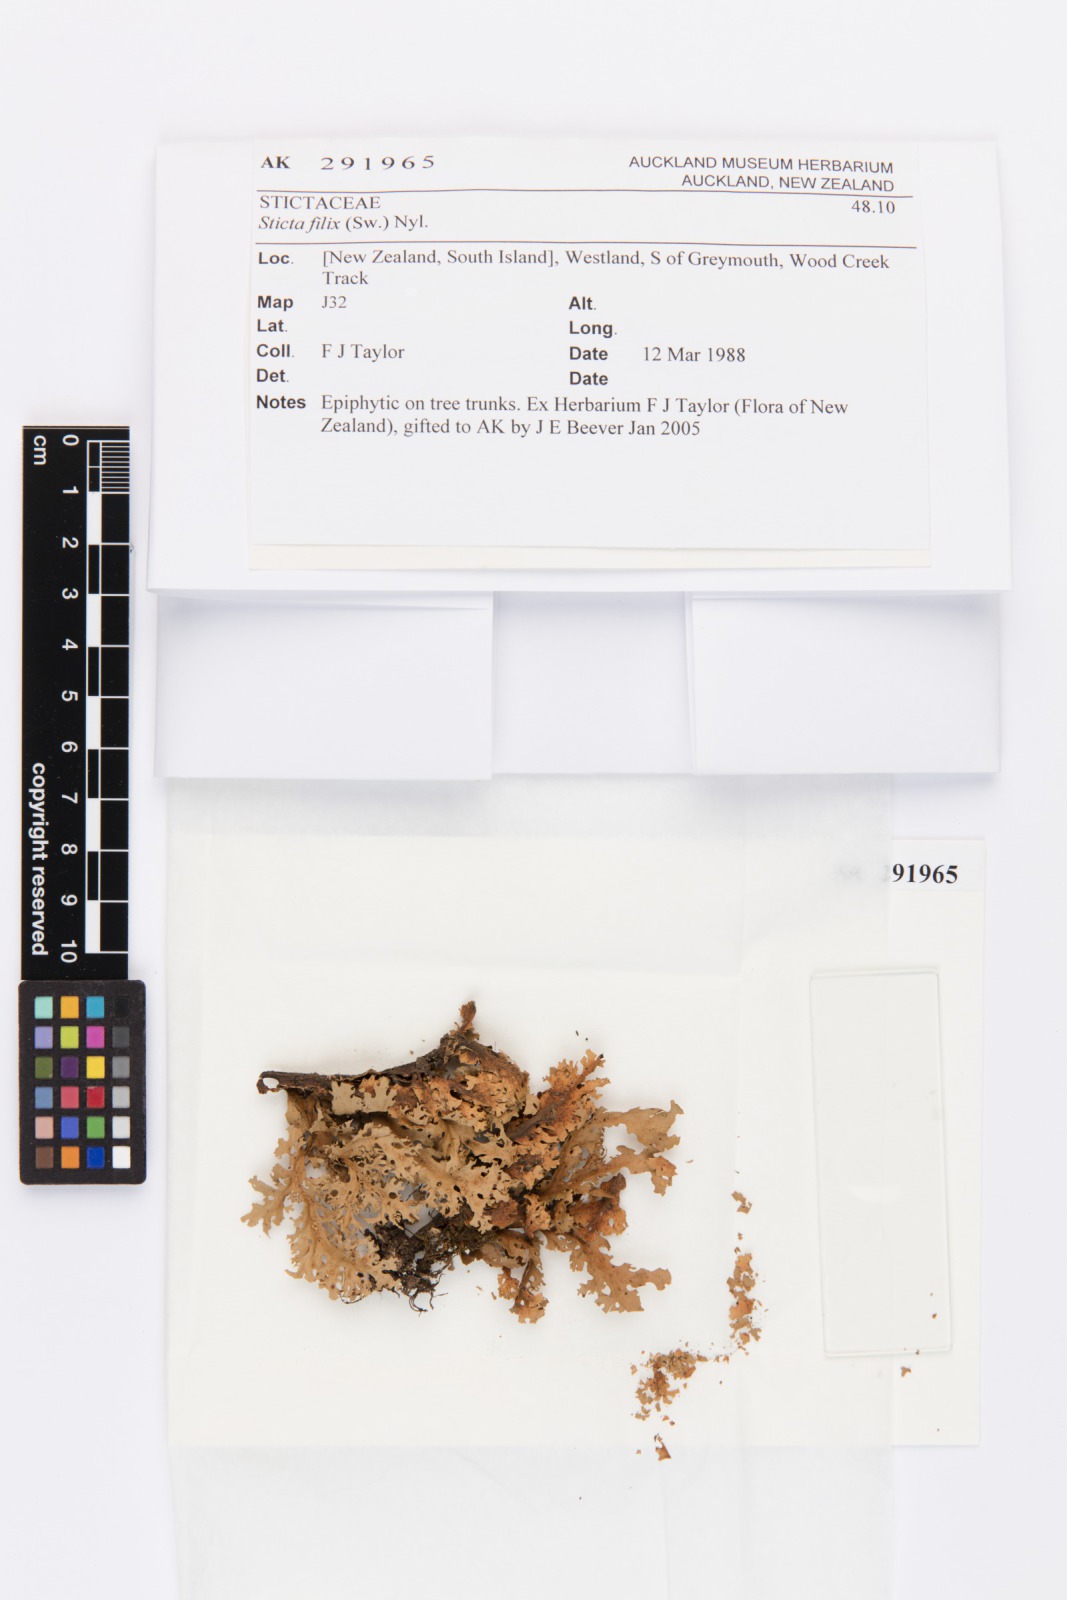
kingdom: Fungi
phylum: Ascomycota
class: Lecanoromycetes
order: Peltigerales
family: Lobariaceae
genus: Sticta
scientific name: Sticta filix
